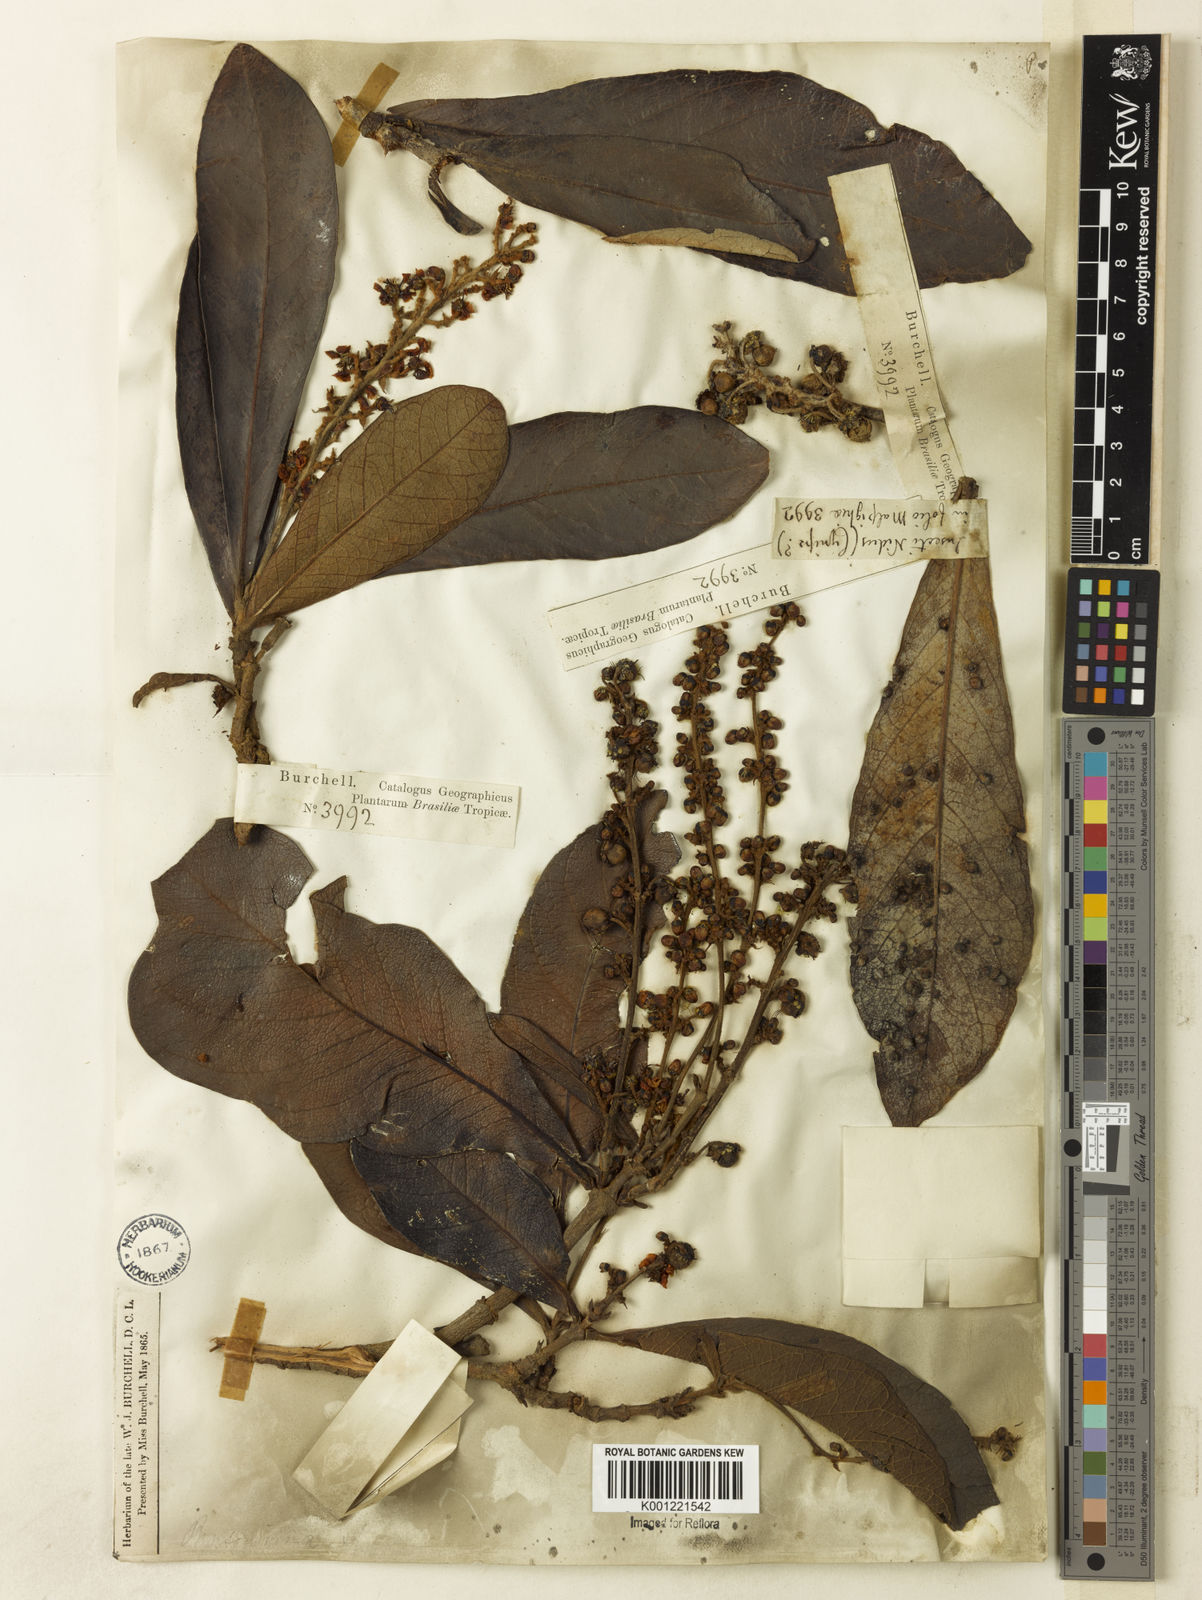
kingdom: Plantae
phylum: Tracheophyta
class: Magnoliopsida
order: Malpighiales
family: Malpighiaceae
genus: Byrsonima
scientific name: Byrsonima pachyphylla
